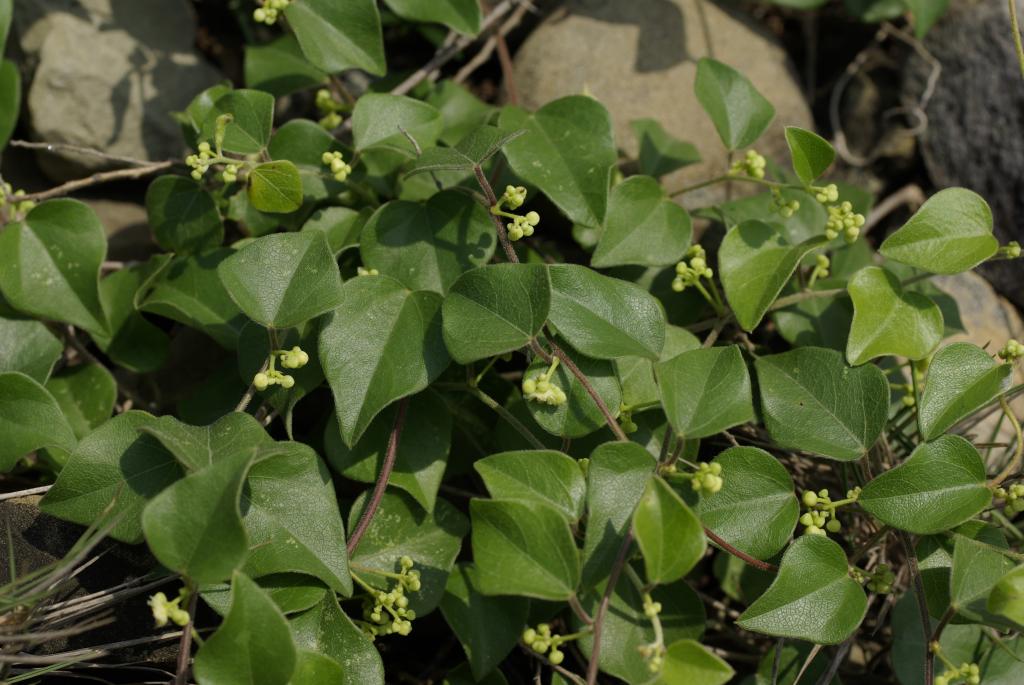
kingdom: Plantae
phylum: Tracheophyta
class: Magnoliopsida
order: Ranunculales
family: Menispermaceae
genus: Cocculus
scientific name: Cocculus orbiculatus
